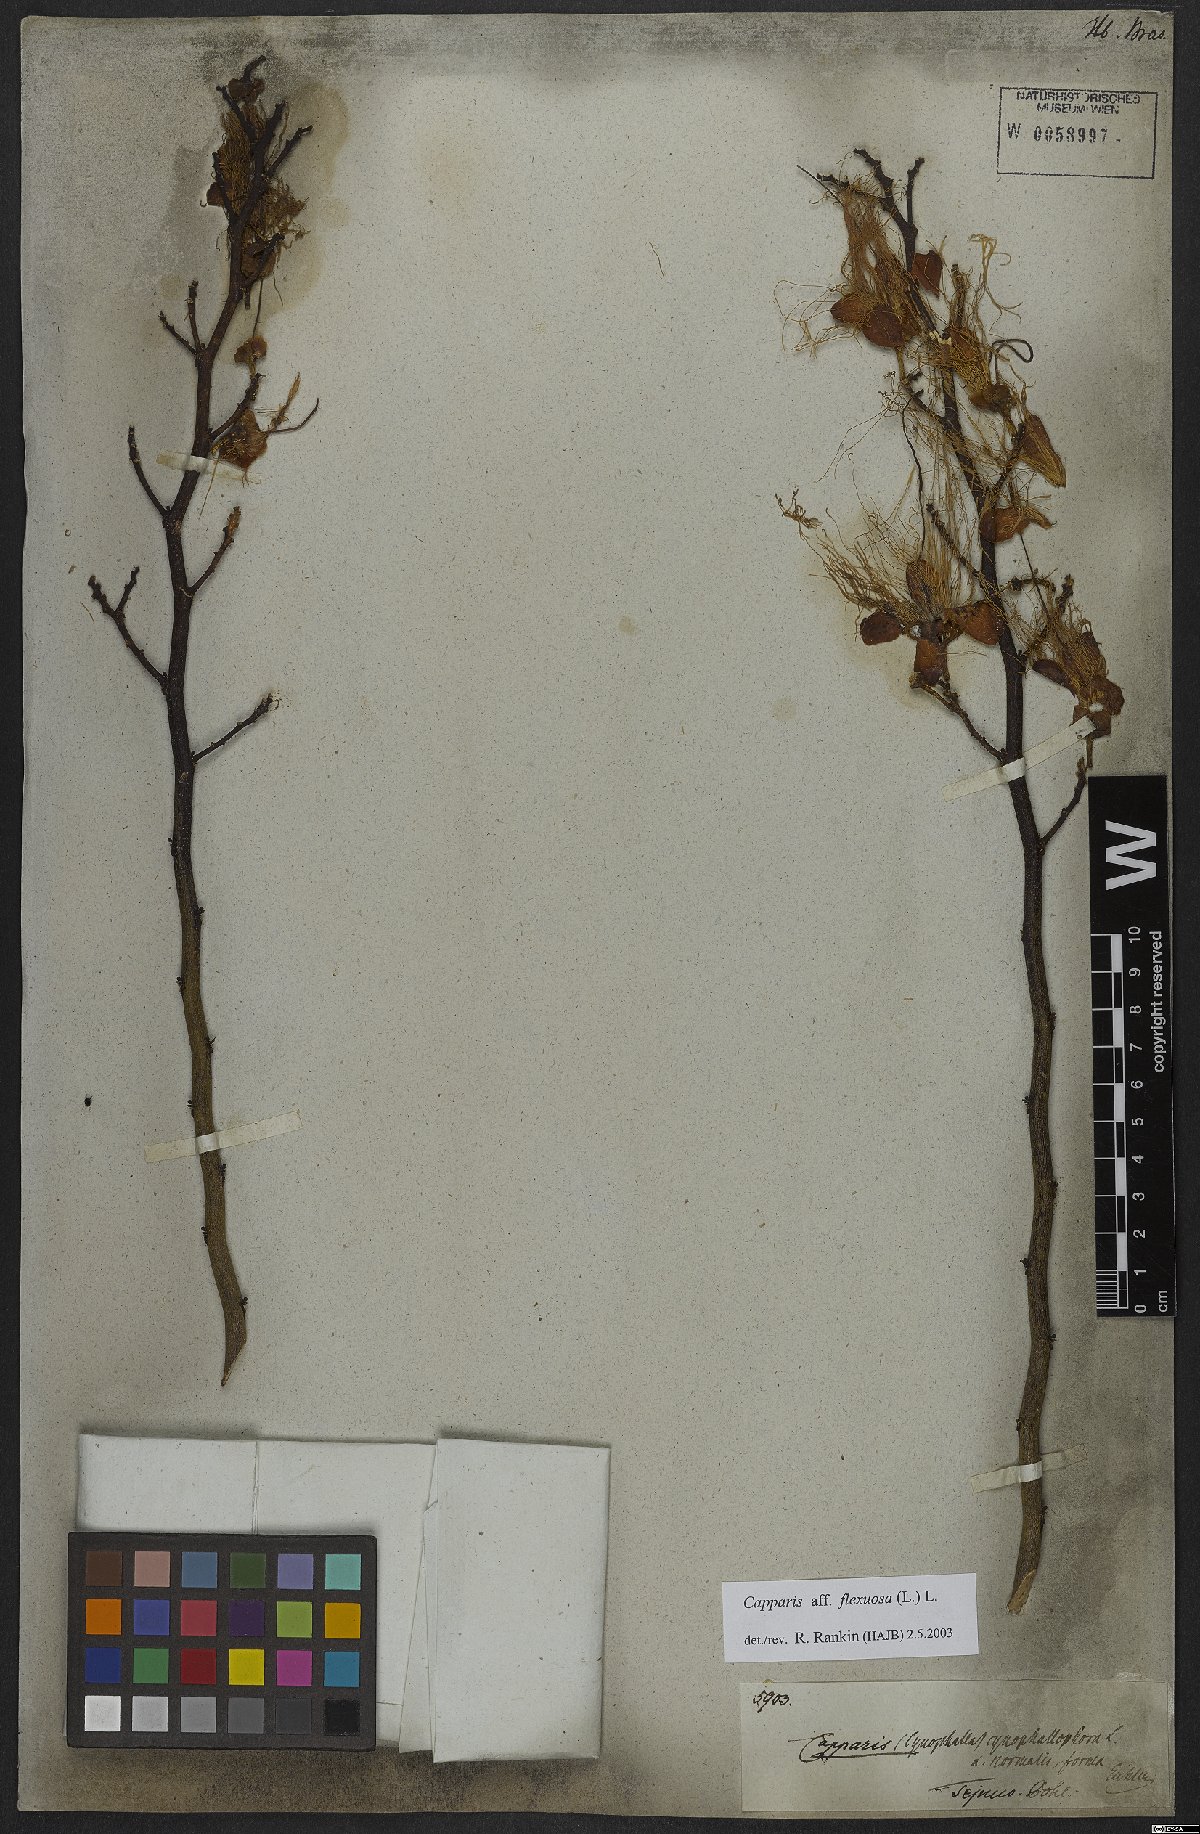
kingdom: Plantae
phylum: Tracheophyta
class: Magnoliopsida
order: Brassicales
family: Capparaceae
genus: Cynophalla
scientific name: Cynophalla flexuosa
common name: Capertree
